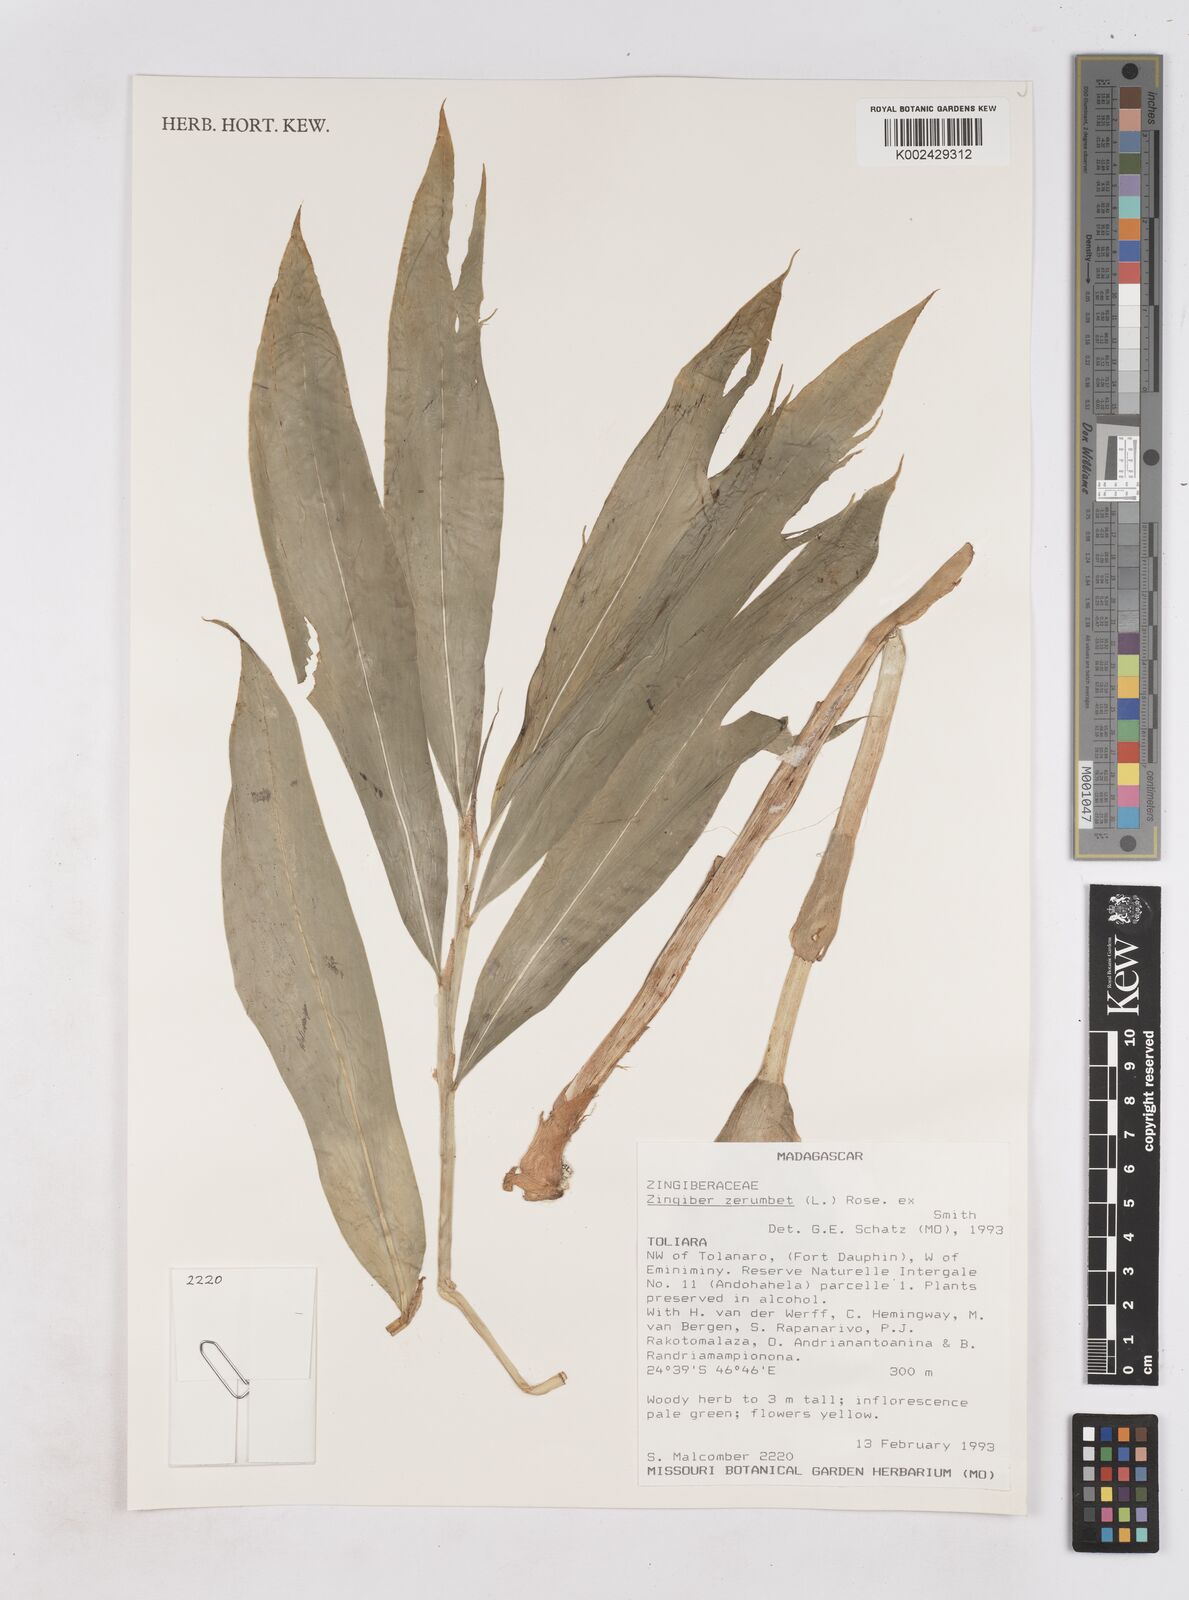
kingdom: Plantae
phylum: Tracheophyta
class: Liliopsida
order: Zingiberales
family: Zingiberaceae
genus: Zingiber
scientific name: Zingiber zerumbet
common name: Bitter ginger
